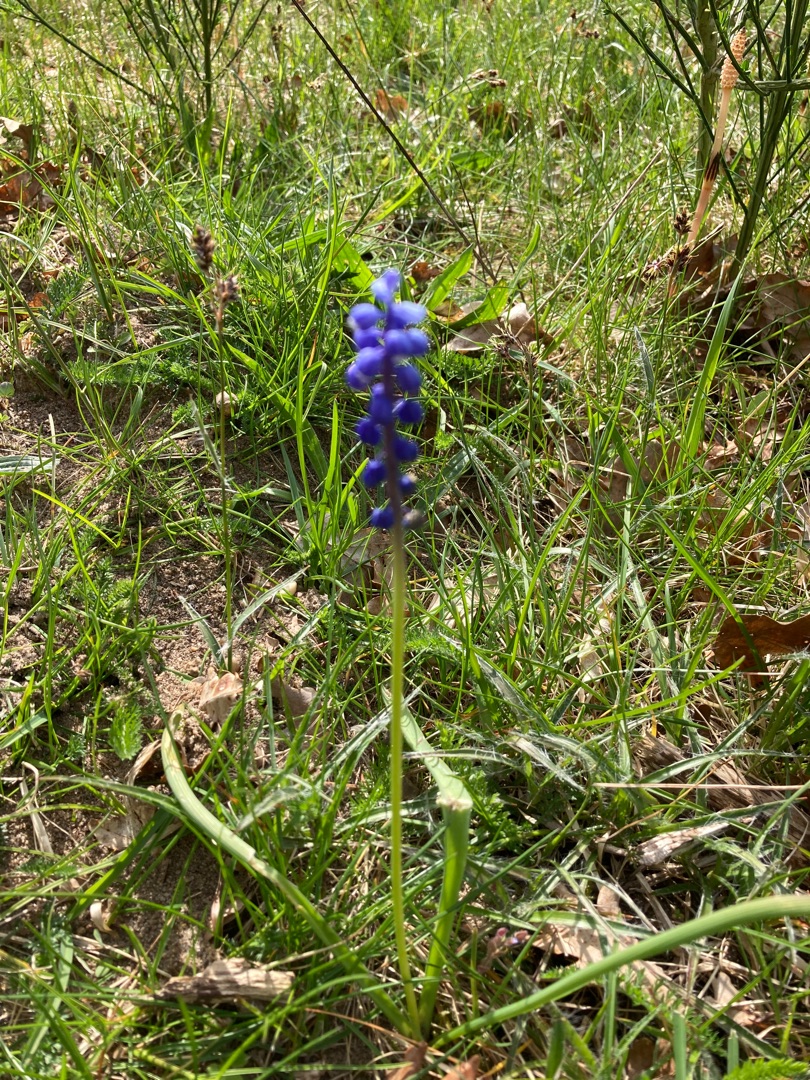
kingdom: Plantae
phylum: Tracheophyta
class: Liliopsida
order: Asparagales
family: Asparagaceae
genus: Muscari
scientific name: Muscari armeniacum
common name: Armensk perlehyacint
